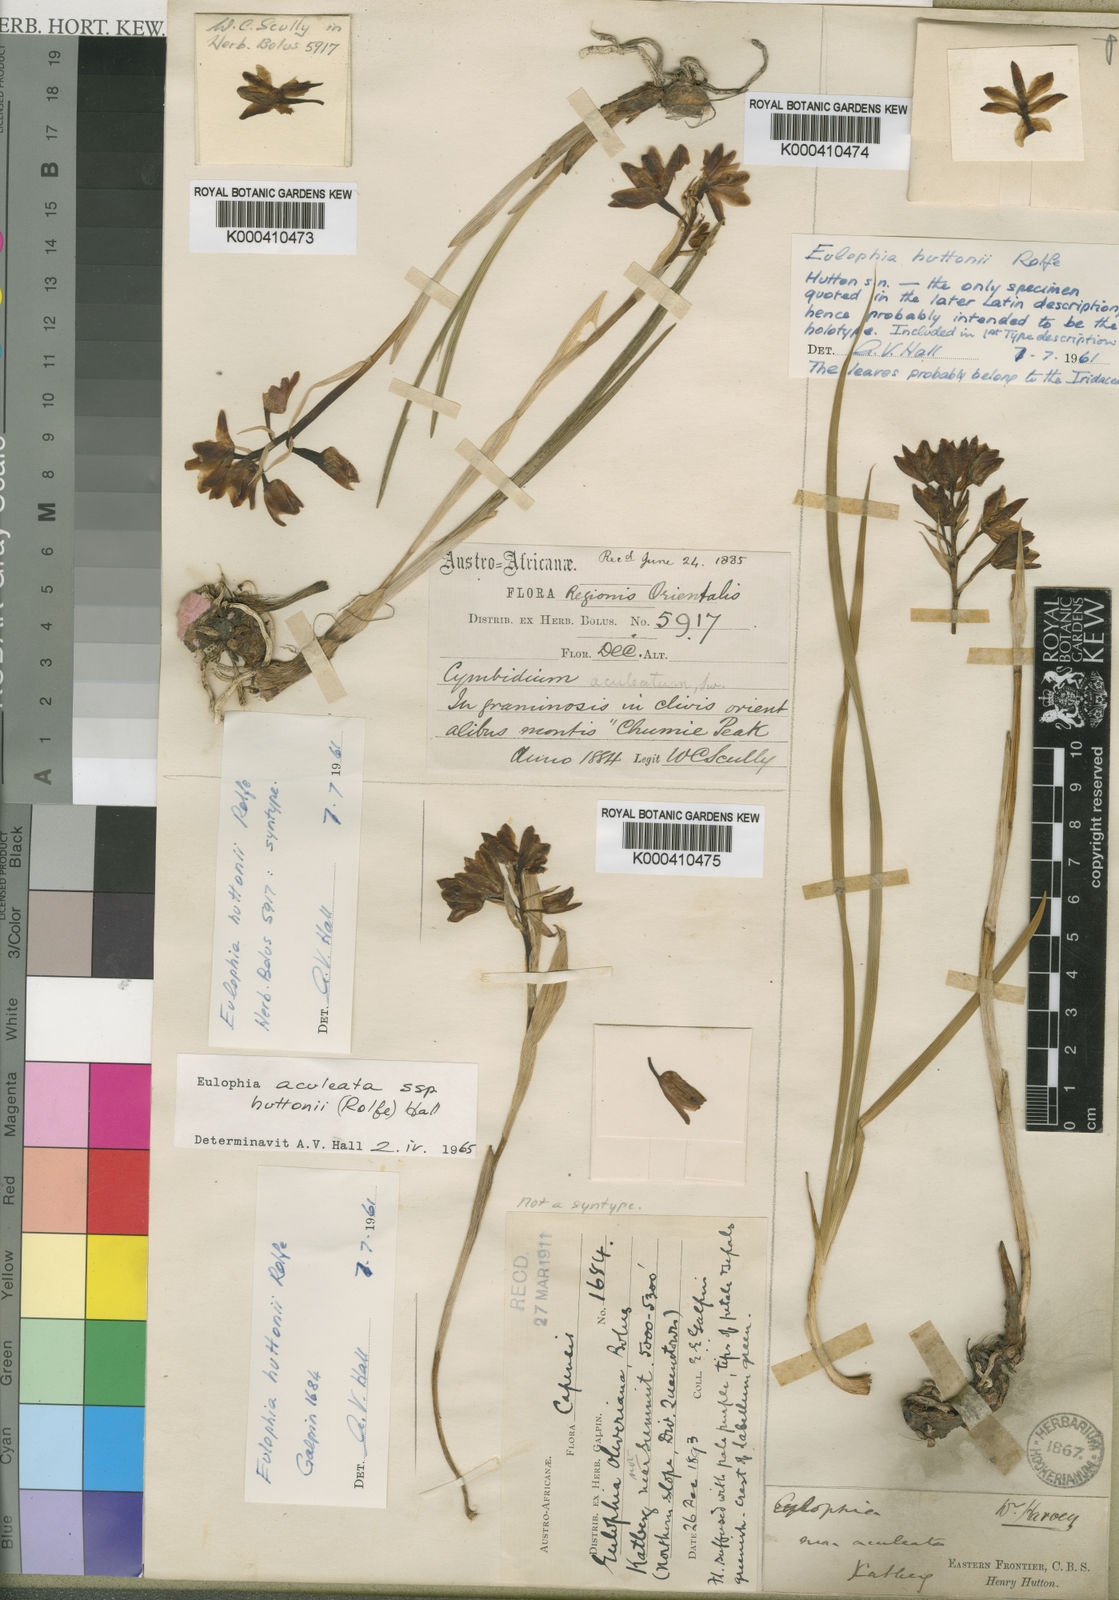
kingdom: Plantae
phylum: Tracheophyta
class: Liliopsida
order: Asparagales
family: Orchidaceae
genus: Eulophia
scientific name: Eulophia
